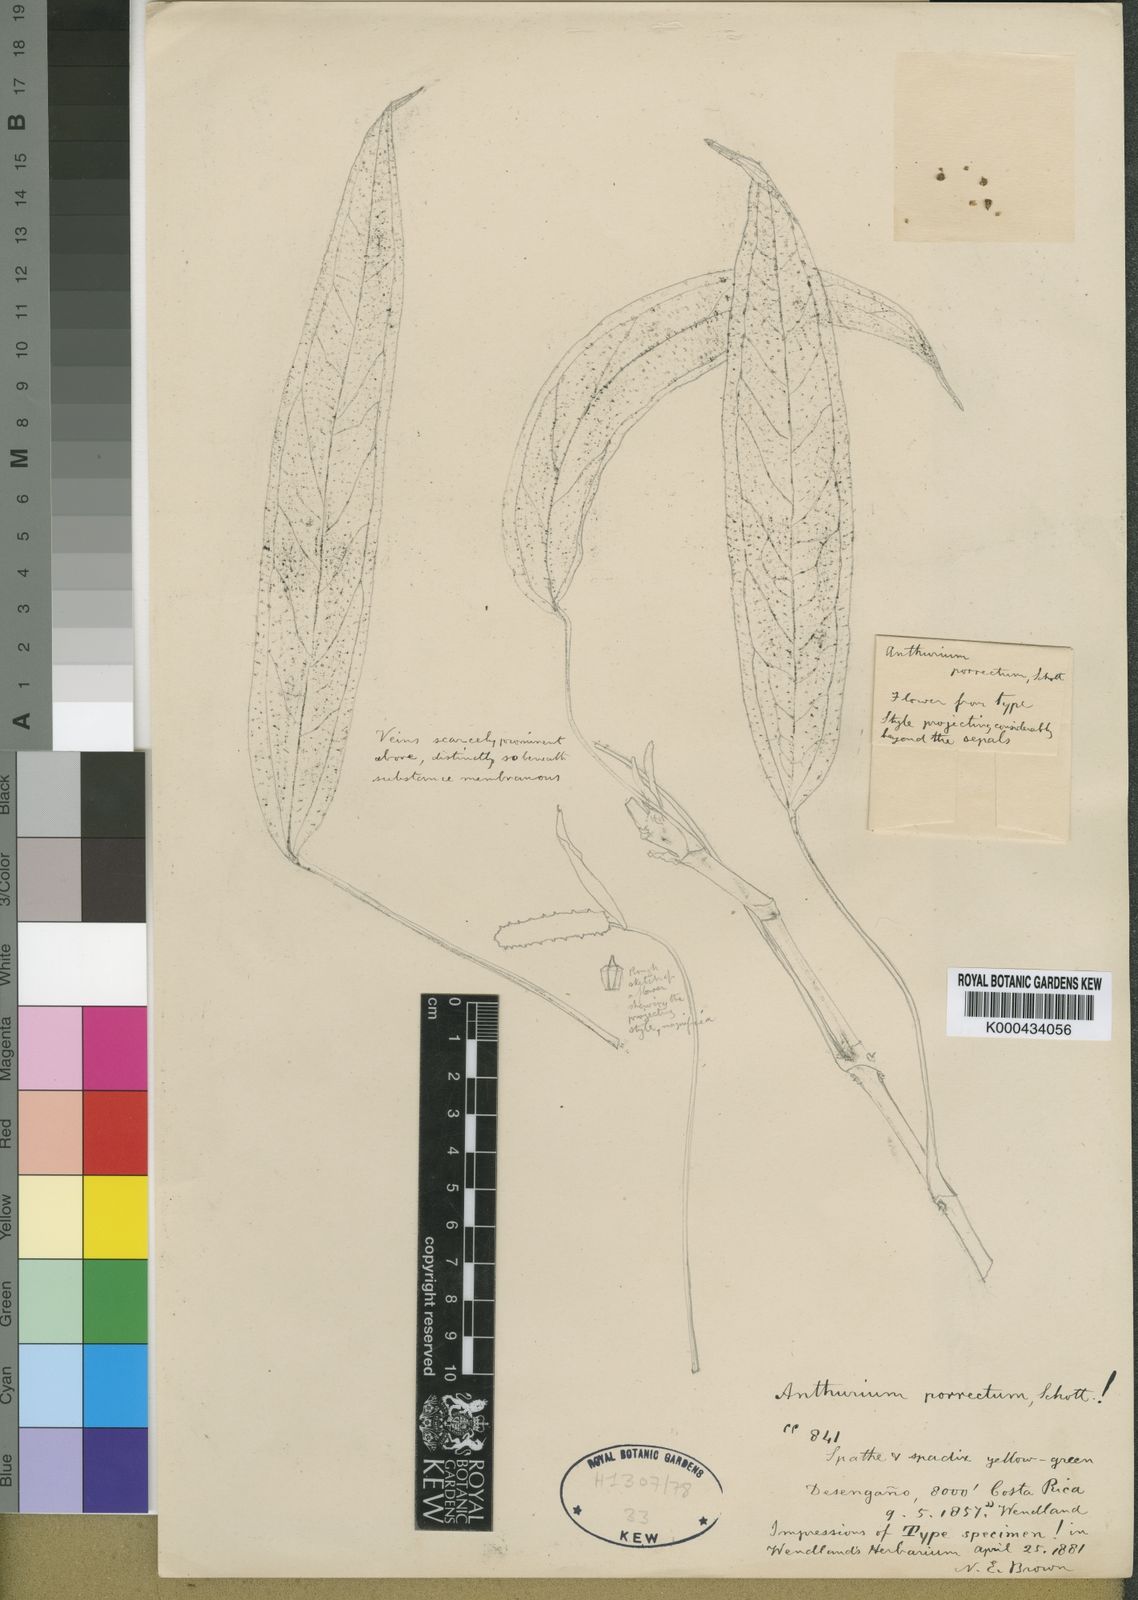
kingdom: Plantae
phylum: Tracheophyta
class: Liliopsida
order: Alismatales
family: Araceae
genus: Anthurium
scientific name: Anthurium microspadix
